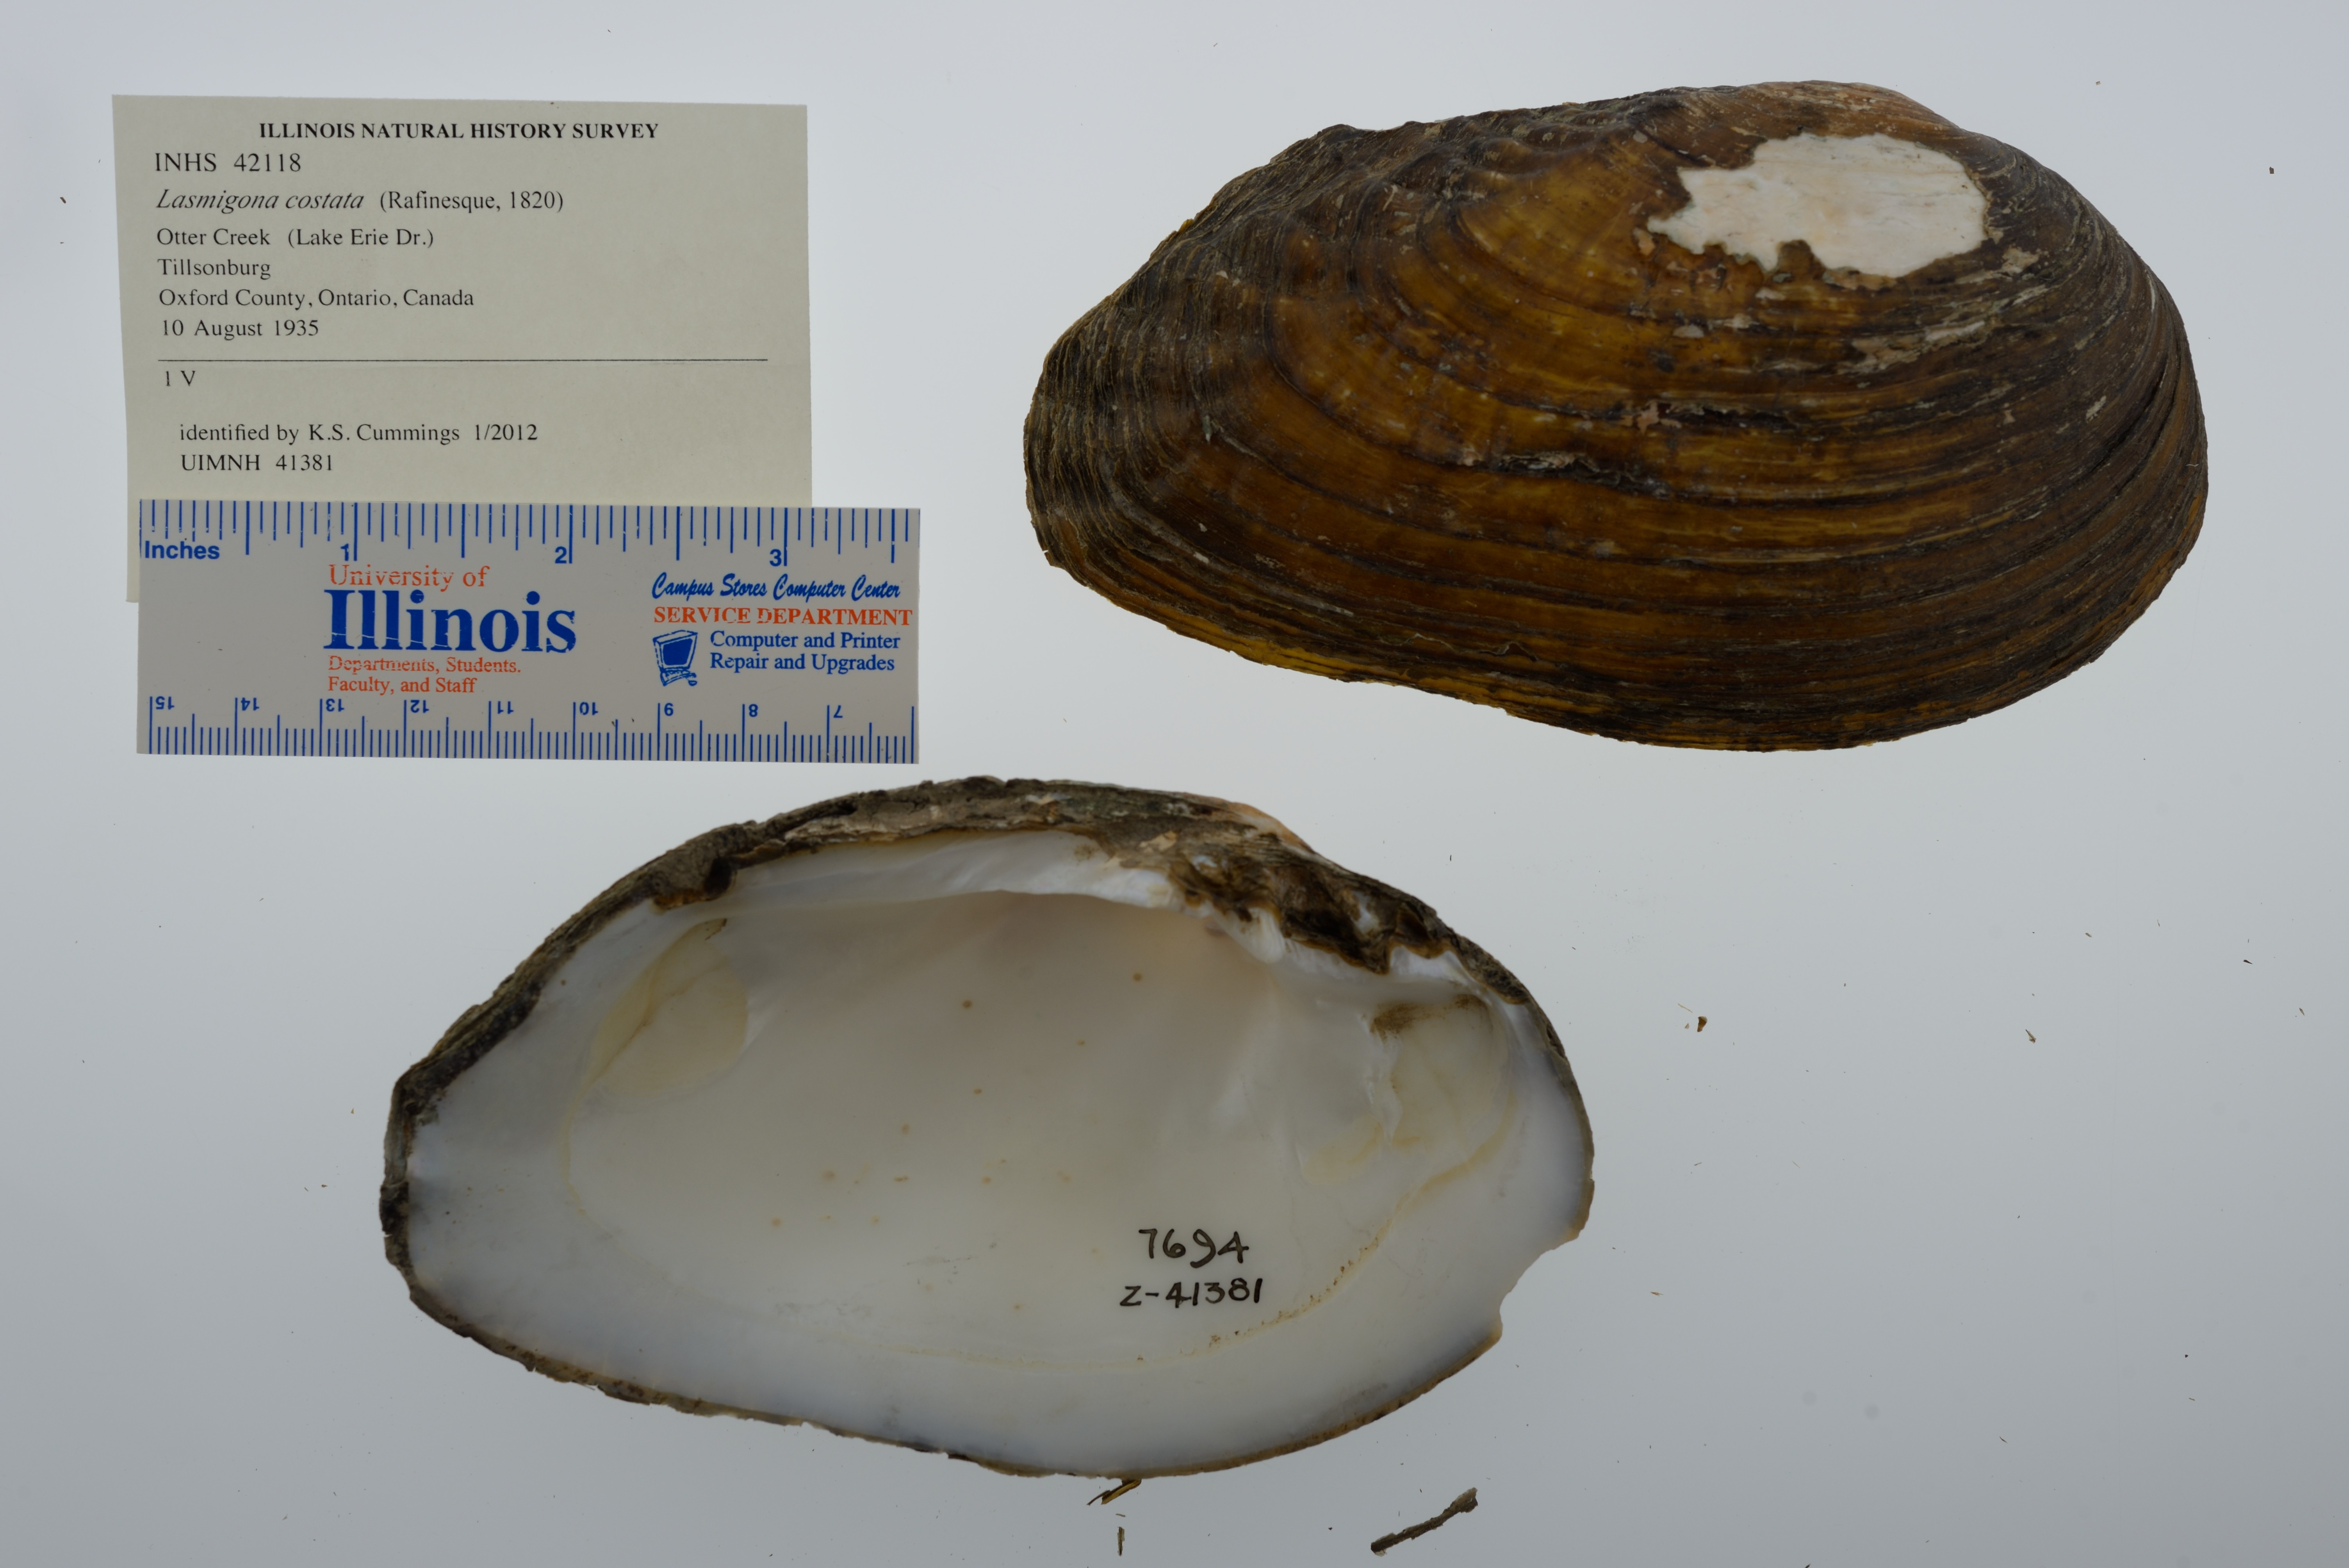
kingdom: Animalia
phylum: Mollusca
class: Bivalvia
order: Unionida
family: Unionidae
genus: Lasmigona
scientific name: Lasmigona costata
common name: Flutedshell
